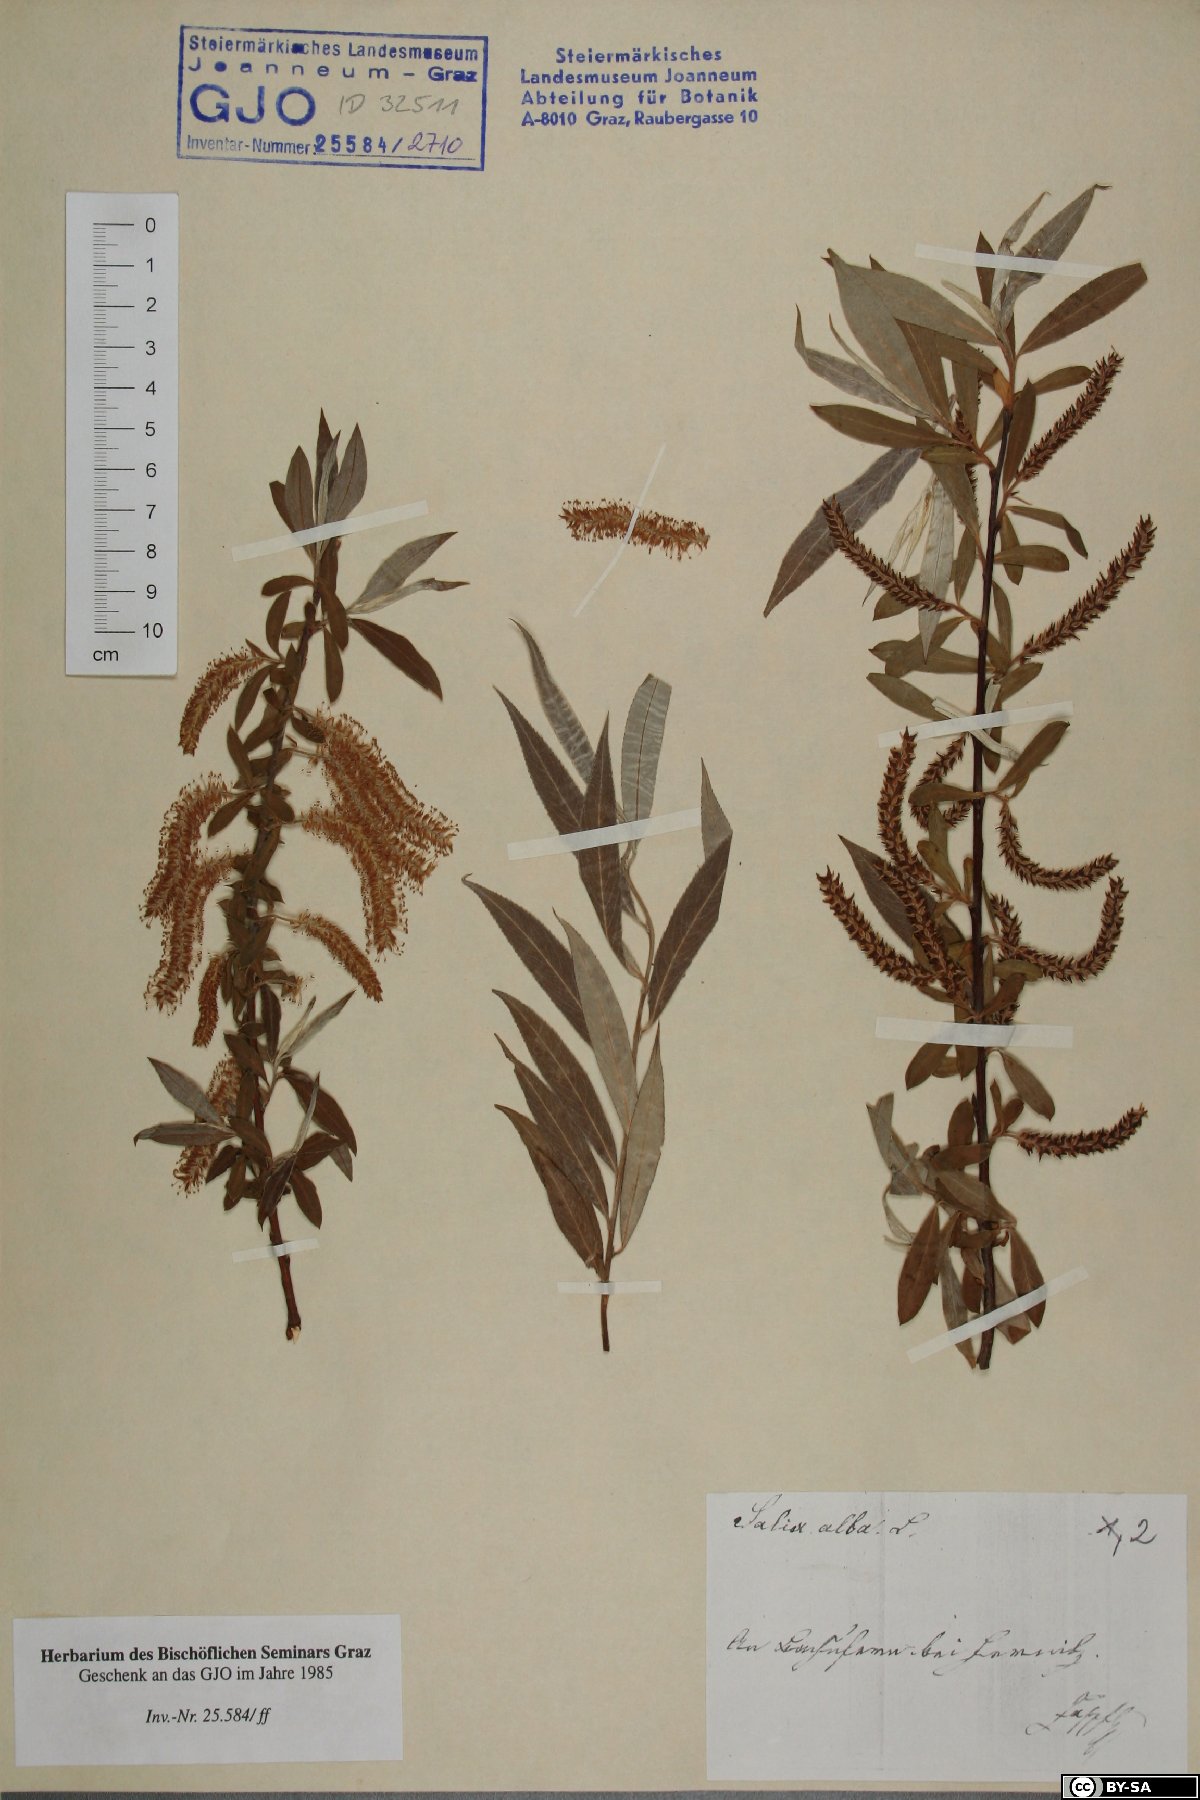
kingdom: Plantae
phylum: Tracheophyta
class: Magnoliopsida
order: Malpighiales
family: Salicaceae
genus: Salix
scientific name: Salix alba
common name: White willow
